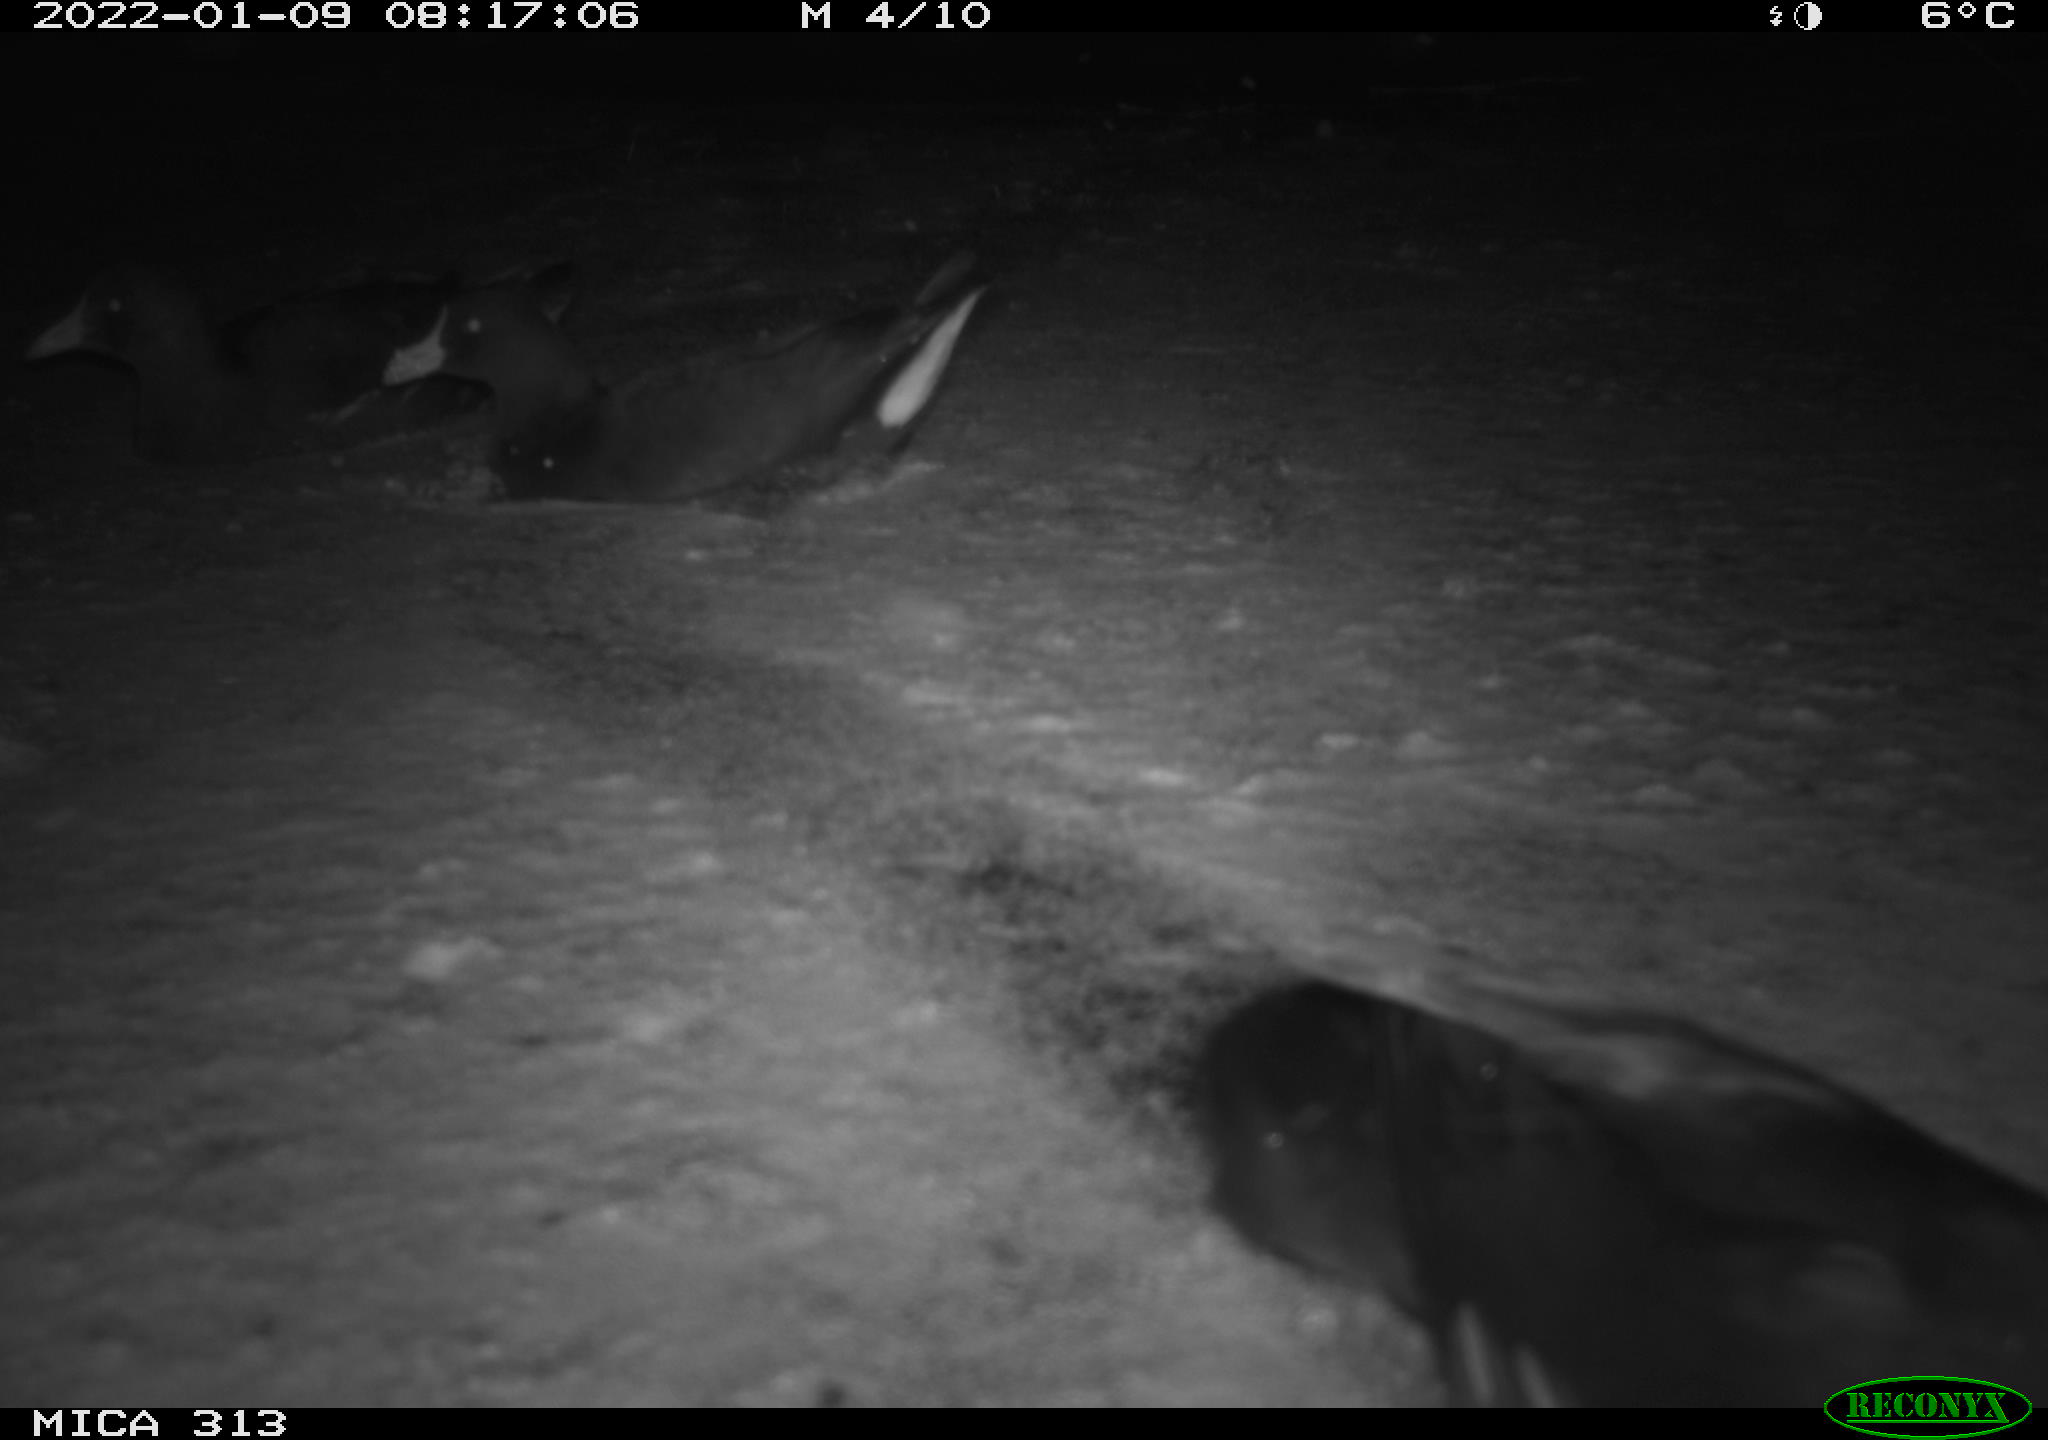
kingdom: Animalia
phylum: Chordata
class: Aves
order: Gruiformes
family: Rallidae
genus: Gallinula
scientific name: Gallinula chloropus
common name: Common moorhen
